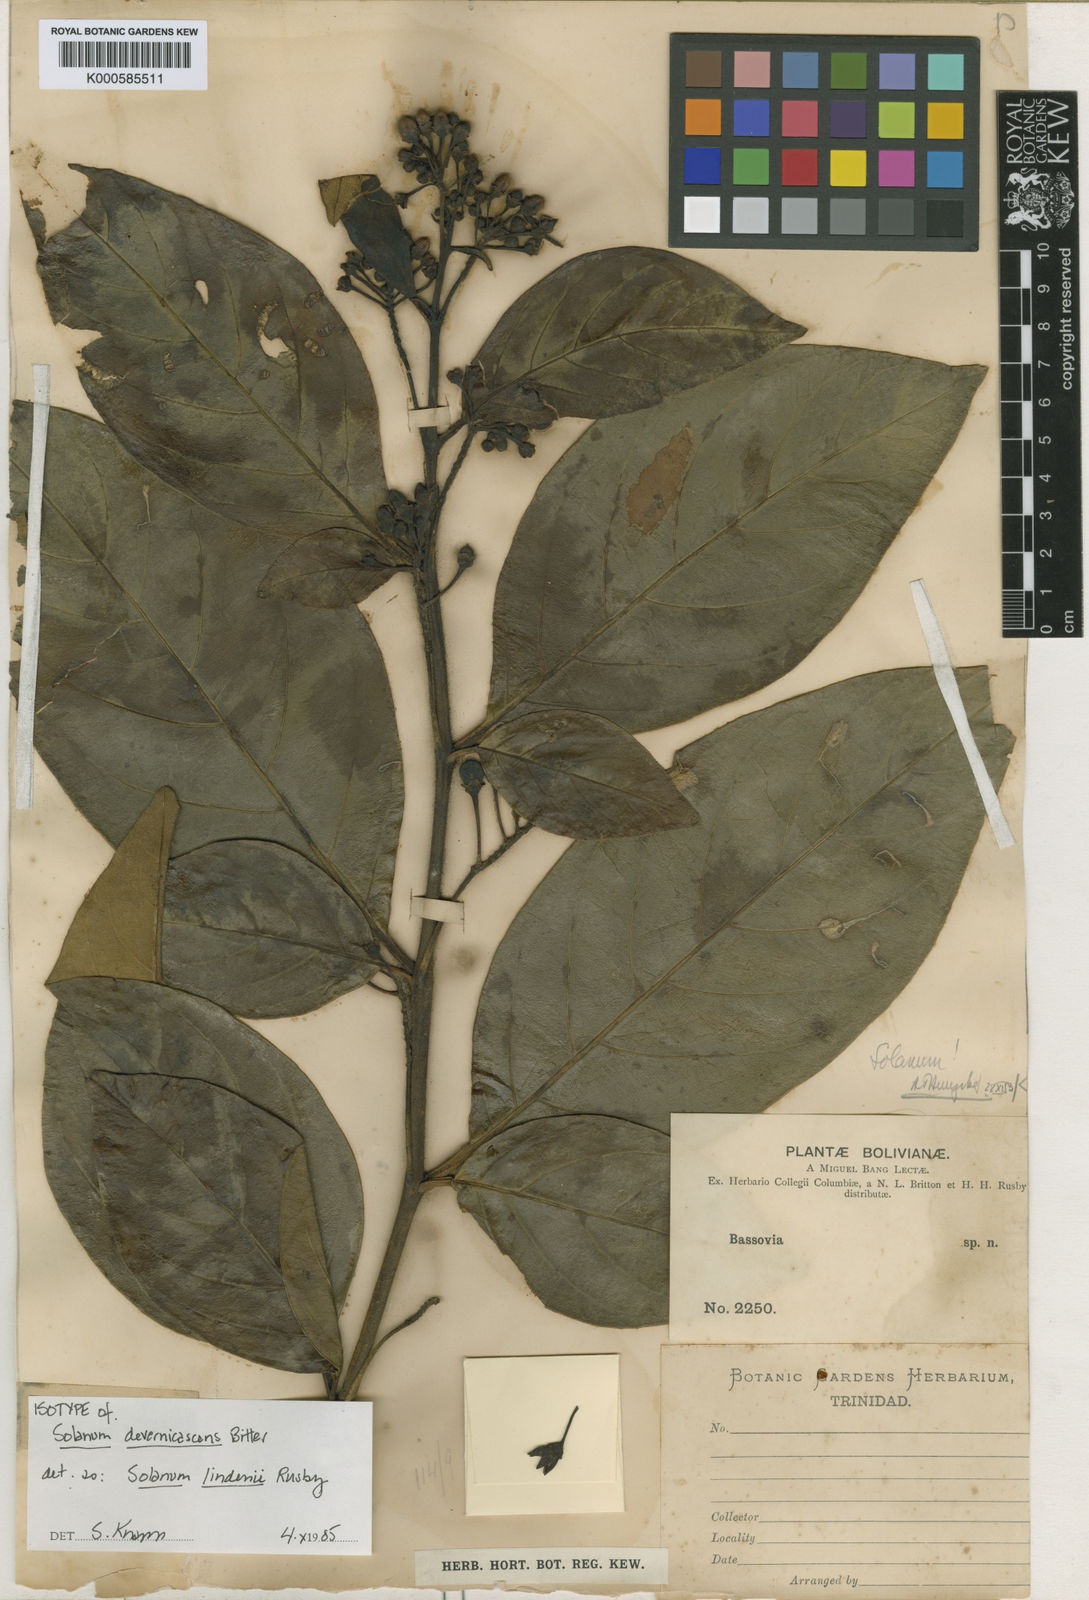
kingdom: Plantae
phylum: Tracheophyta
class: Magnoliopsida
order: Solanales
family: Solanaceae
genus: Solanum
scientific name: Solanum lindenii
